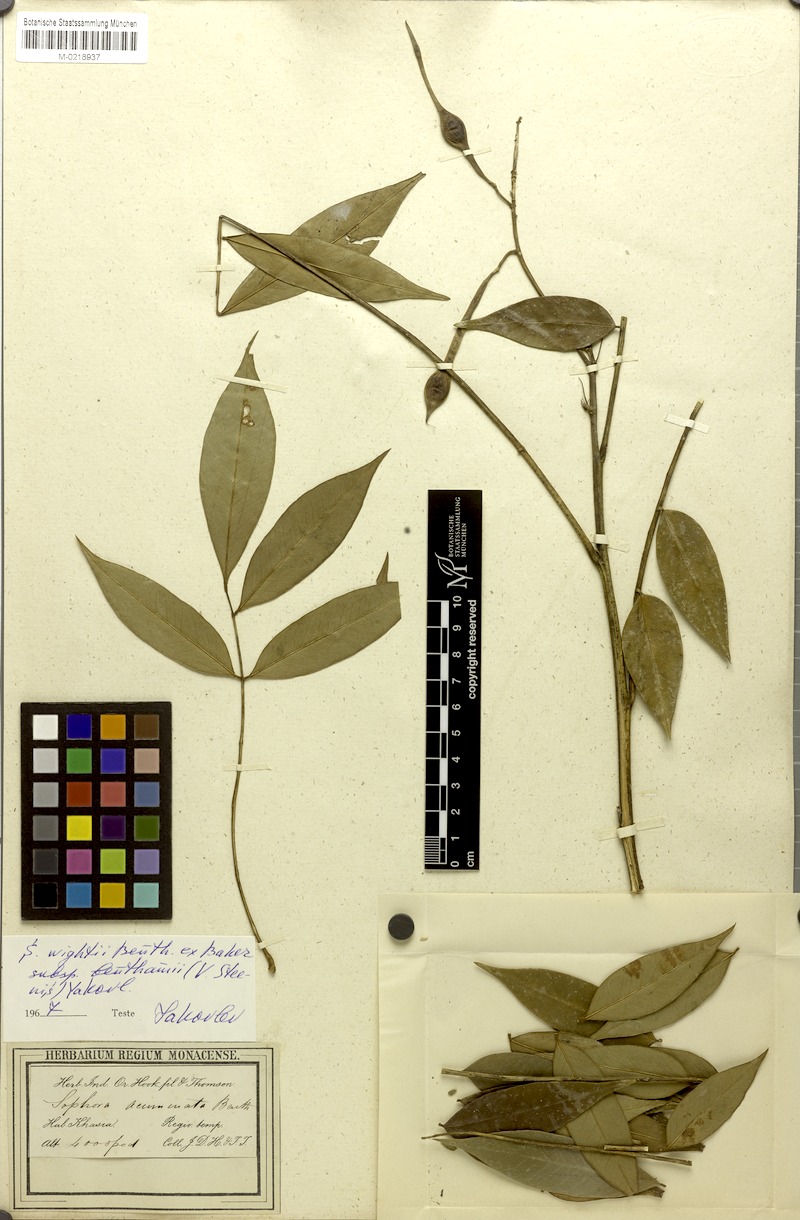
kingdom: Plantae
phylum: Tracheophyta
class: Magnoliopsida
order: Fabales
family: Fabaceae
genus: Sophora
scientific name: Sophora benthamii
